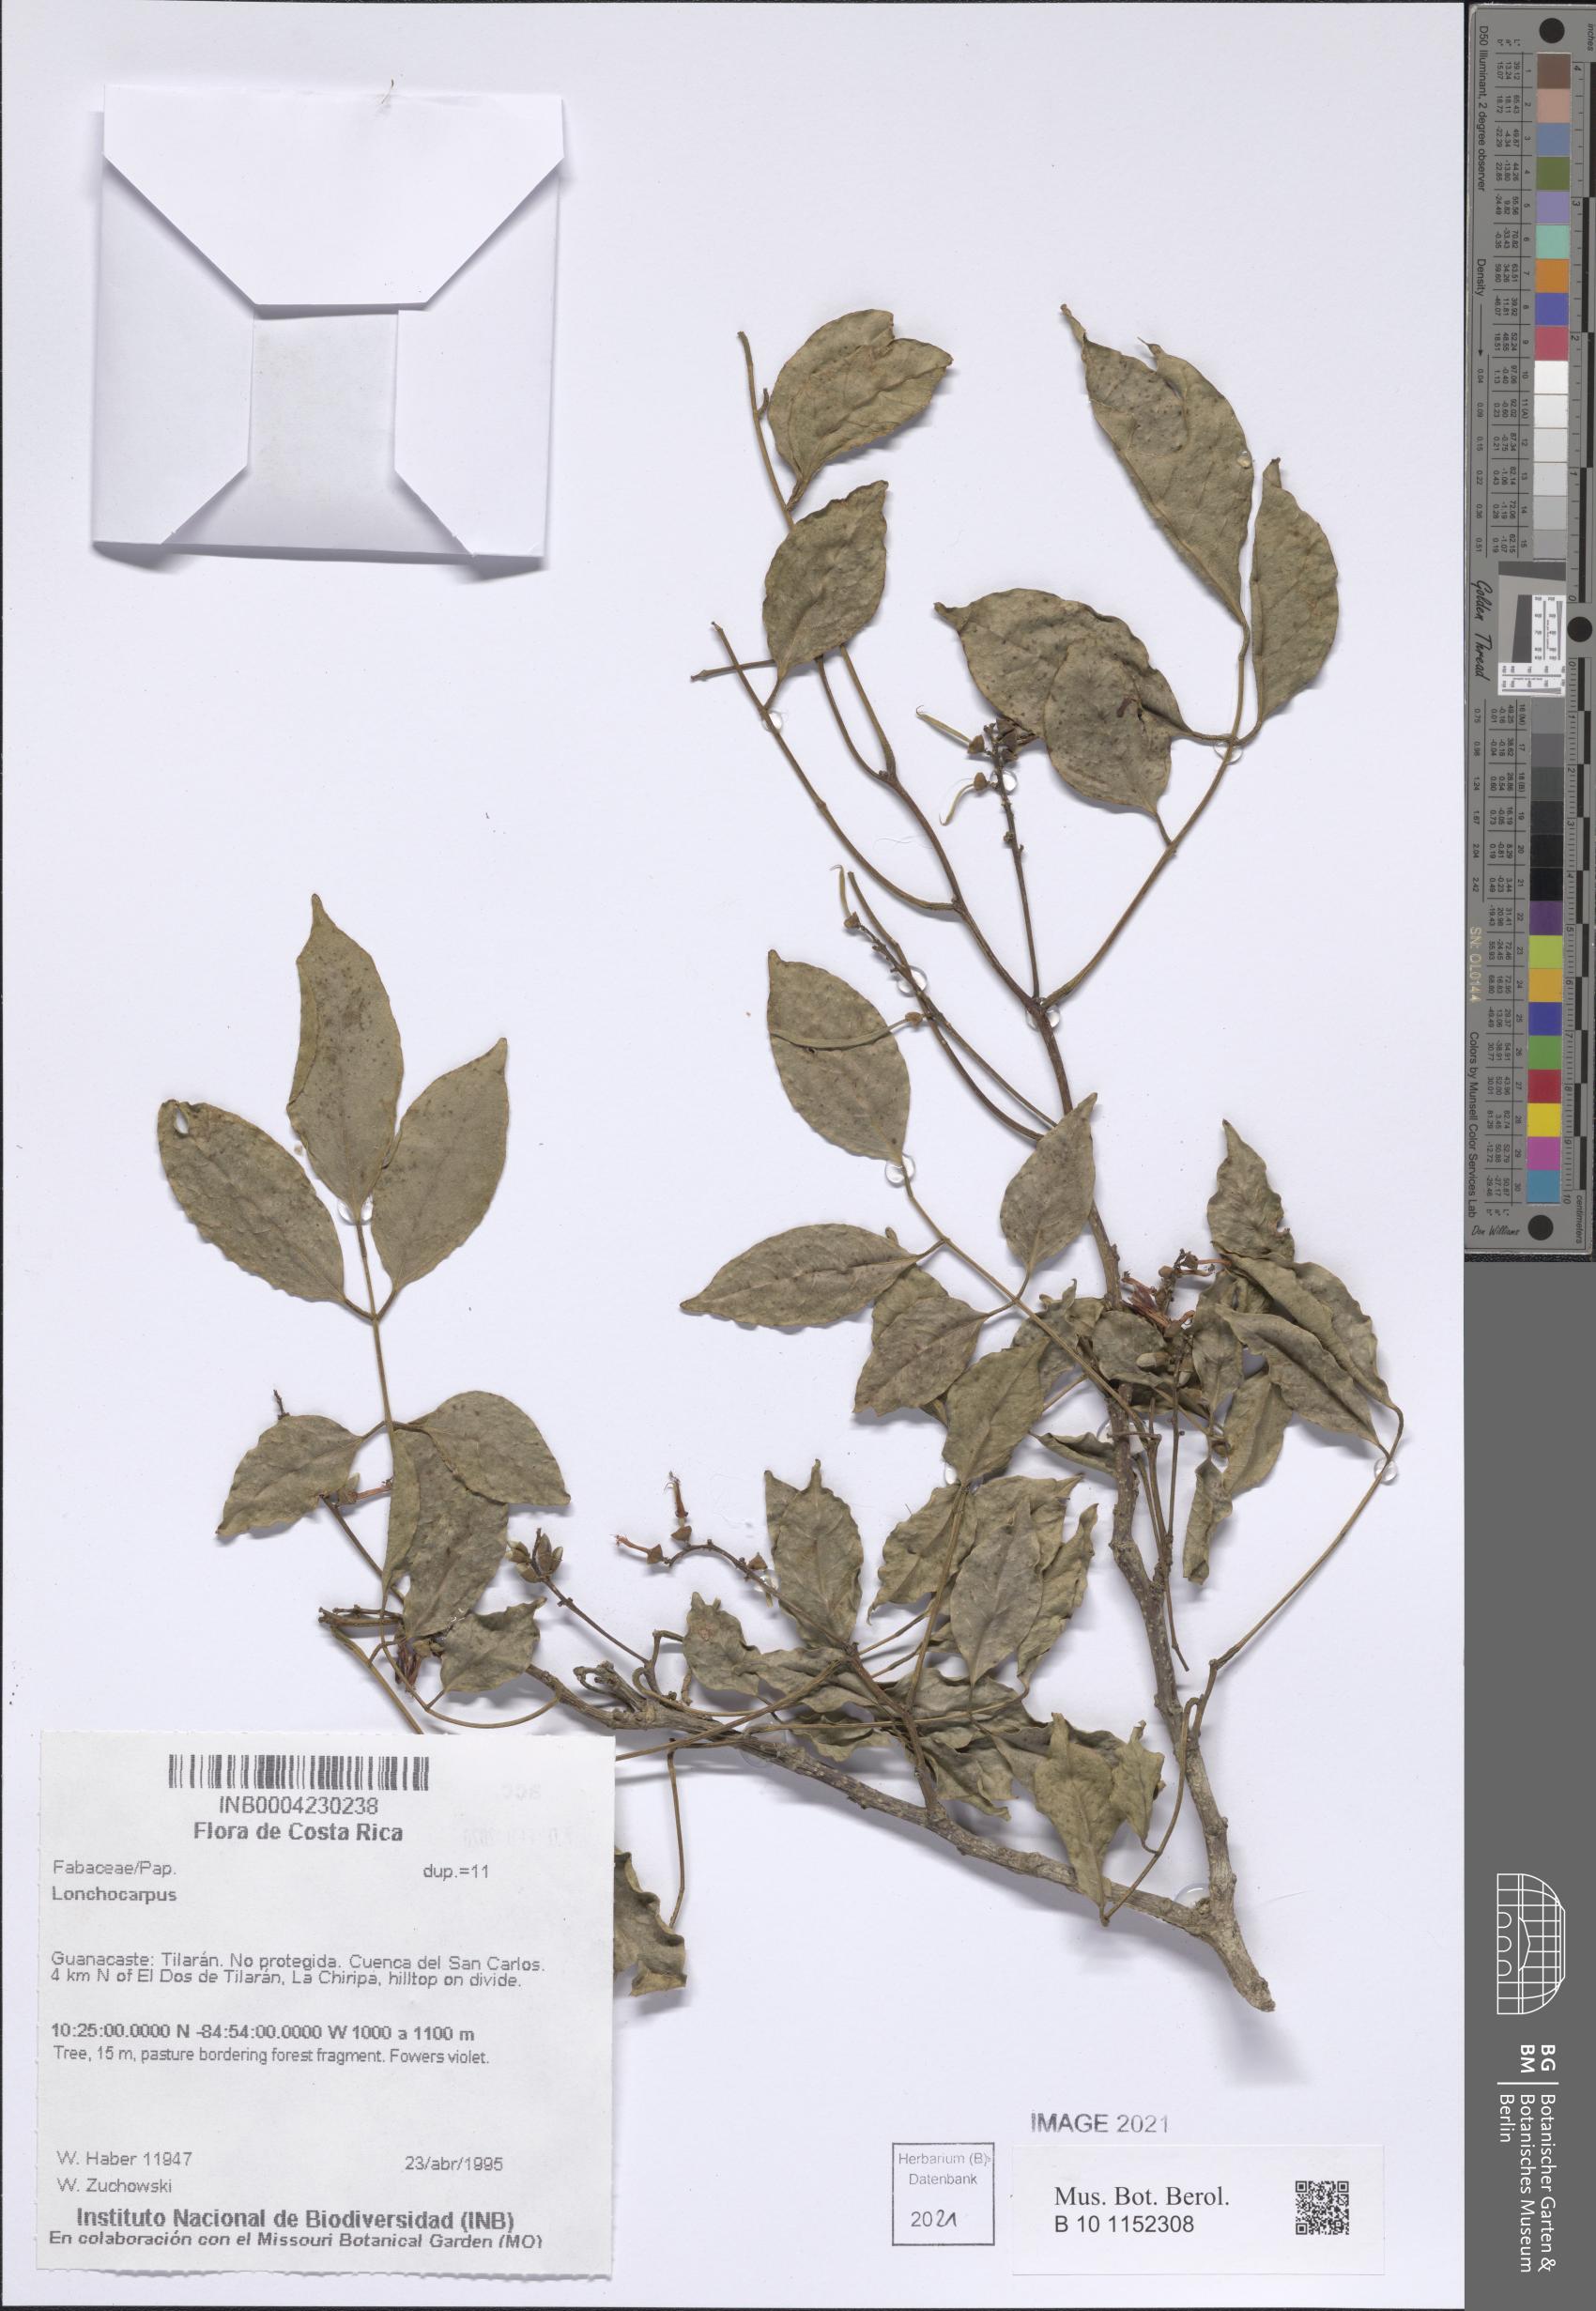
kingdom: Plantae
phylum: Tracheophyta
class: Magnoliopsida
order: Fabales
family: Fabaceae
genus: Lonchocarpus
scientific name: Lonchocarpus
